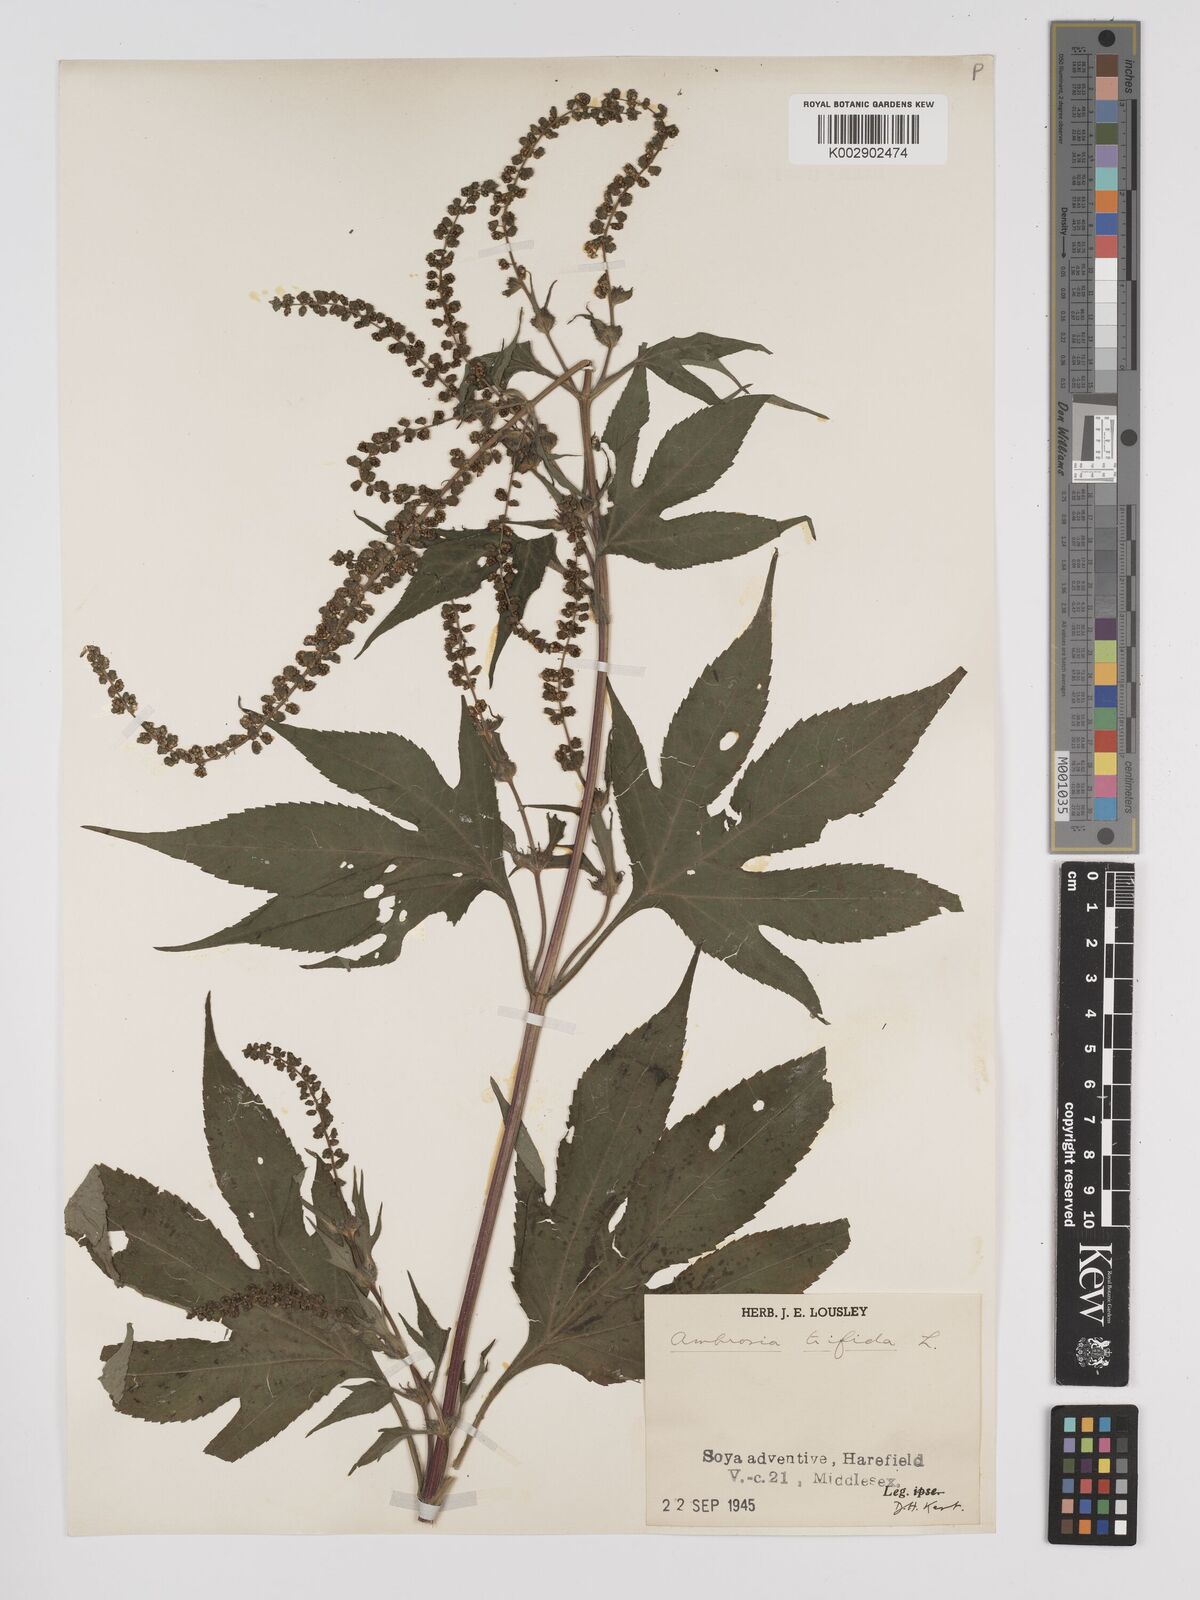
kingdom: Plantae
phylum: Tracheophyta
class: Magnoliopsida
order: Asterales
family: Asteraceae
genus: Ambrosia
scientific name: Ambrosia trifida
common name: Giant ragweed
